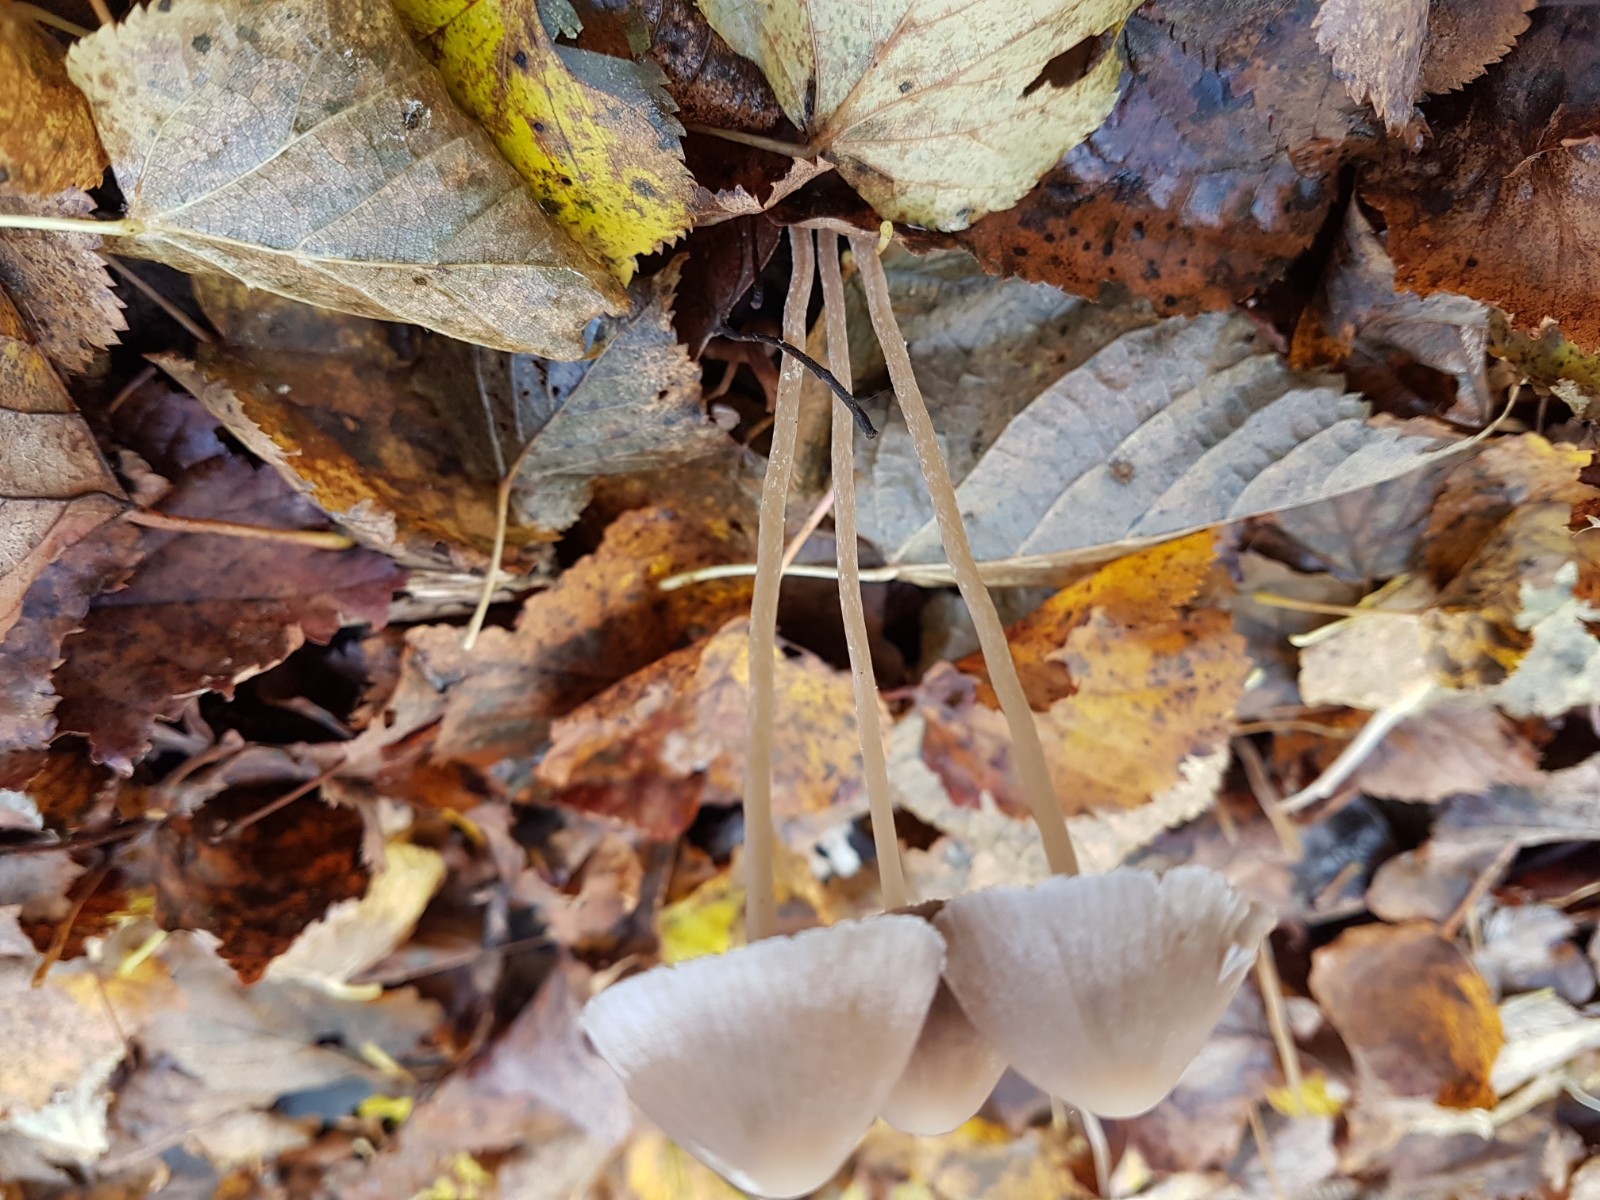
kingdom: Fungi
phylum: Basidiomycota
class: Agaricomycetes
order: Agaricales
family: Psathyrellaceae
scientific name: Psathyrellaceae
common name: mørkhatfamilien
